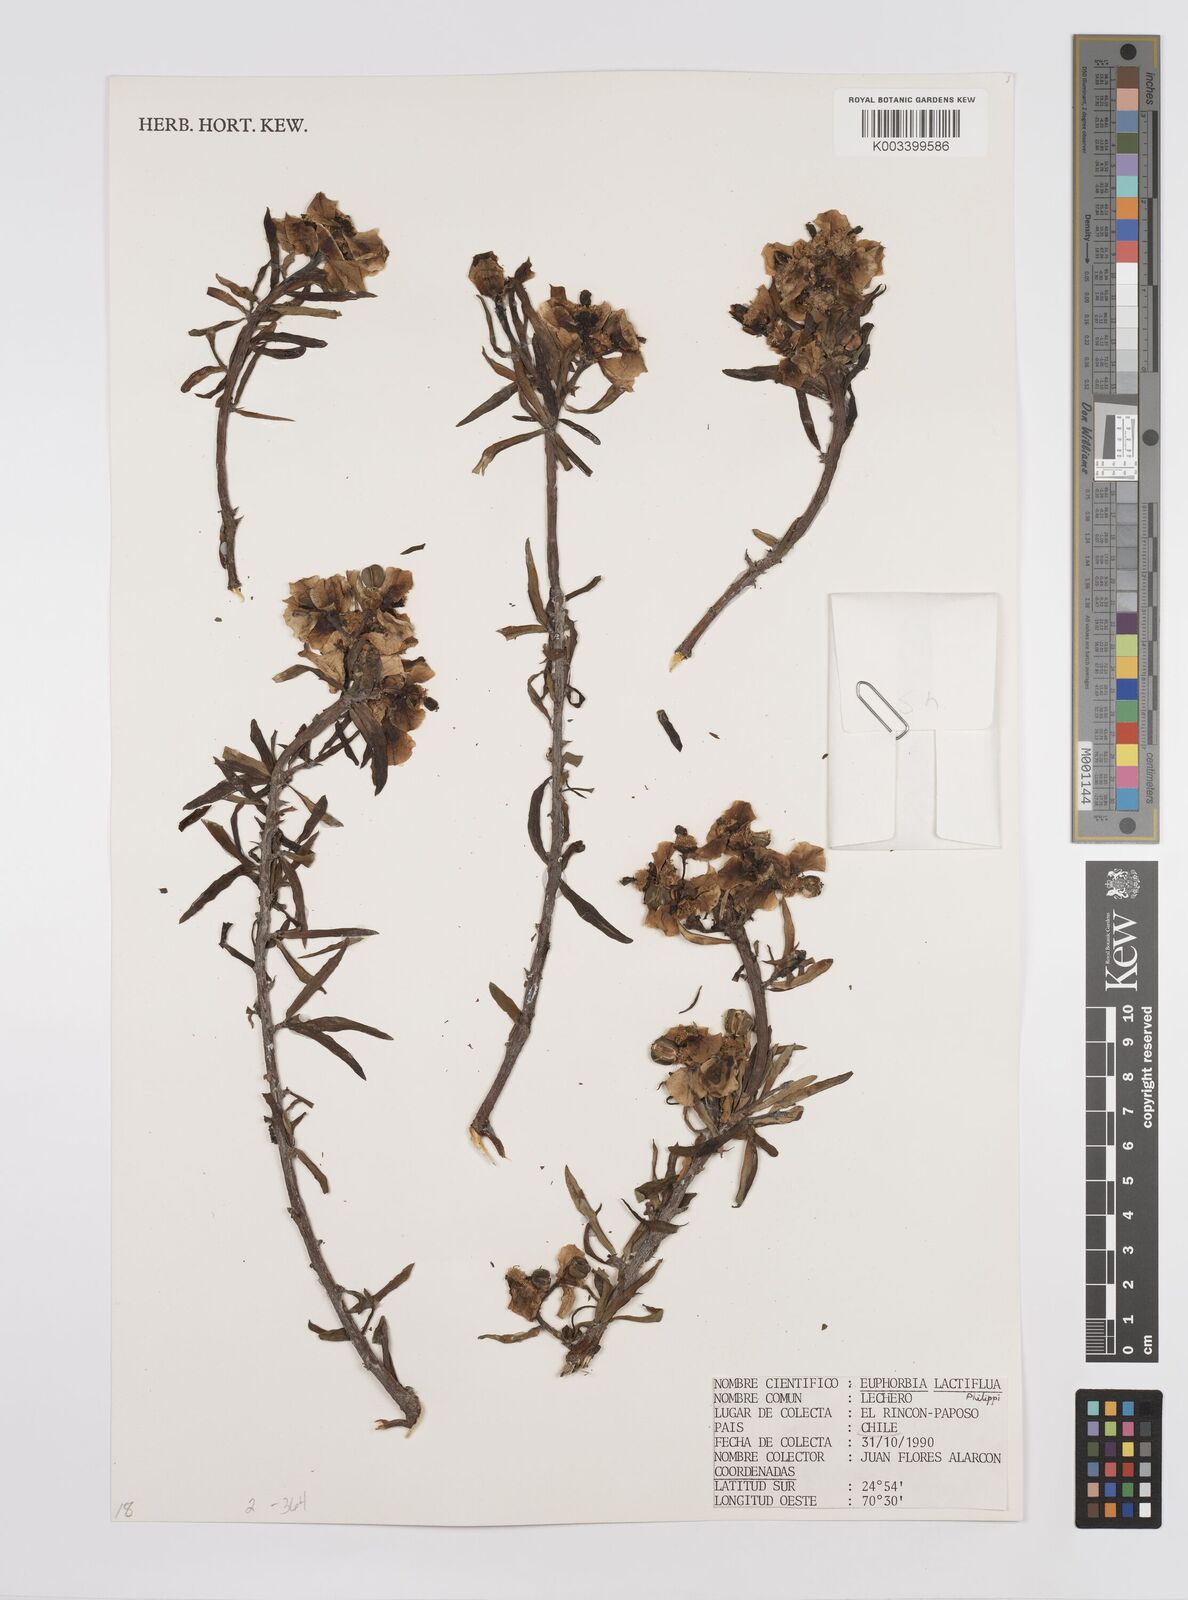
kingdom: Plantae
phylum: Tracheophyta
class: Magnoliopsida
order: Malpighiales
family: Euphorbiaceae
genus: Euphorbia
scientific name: Euphorbia lactiflua
